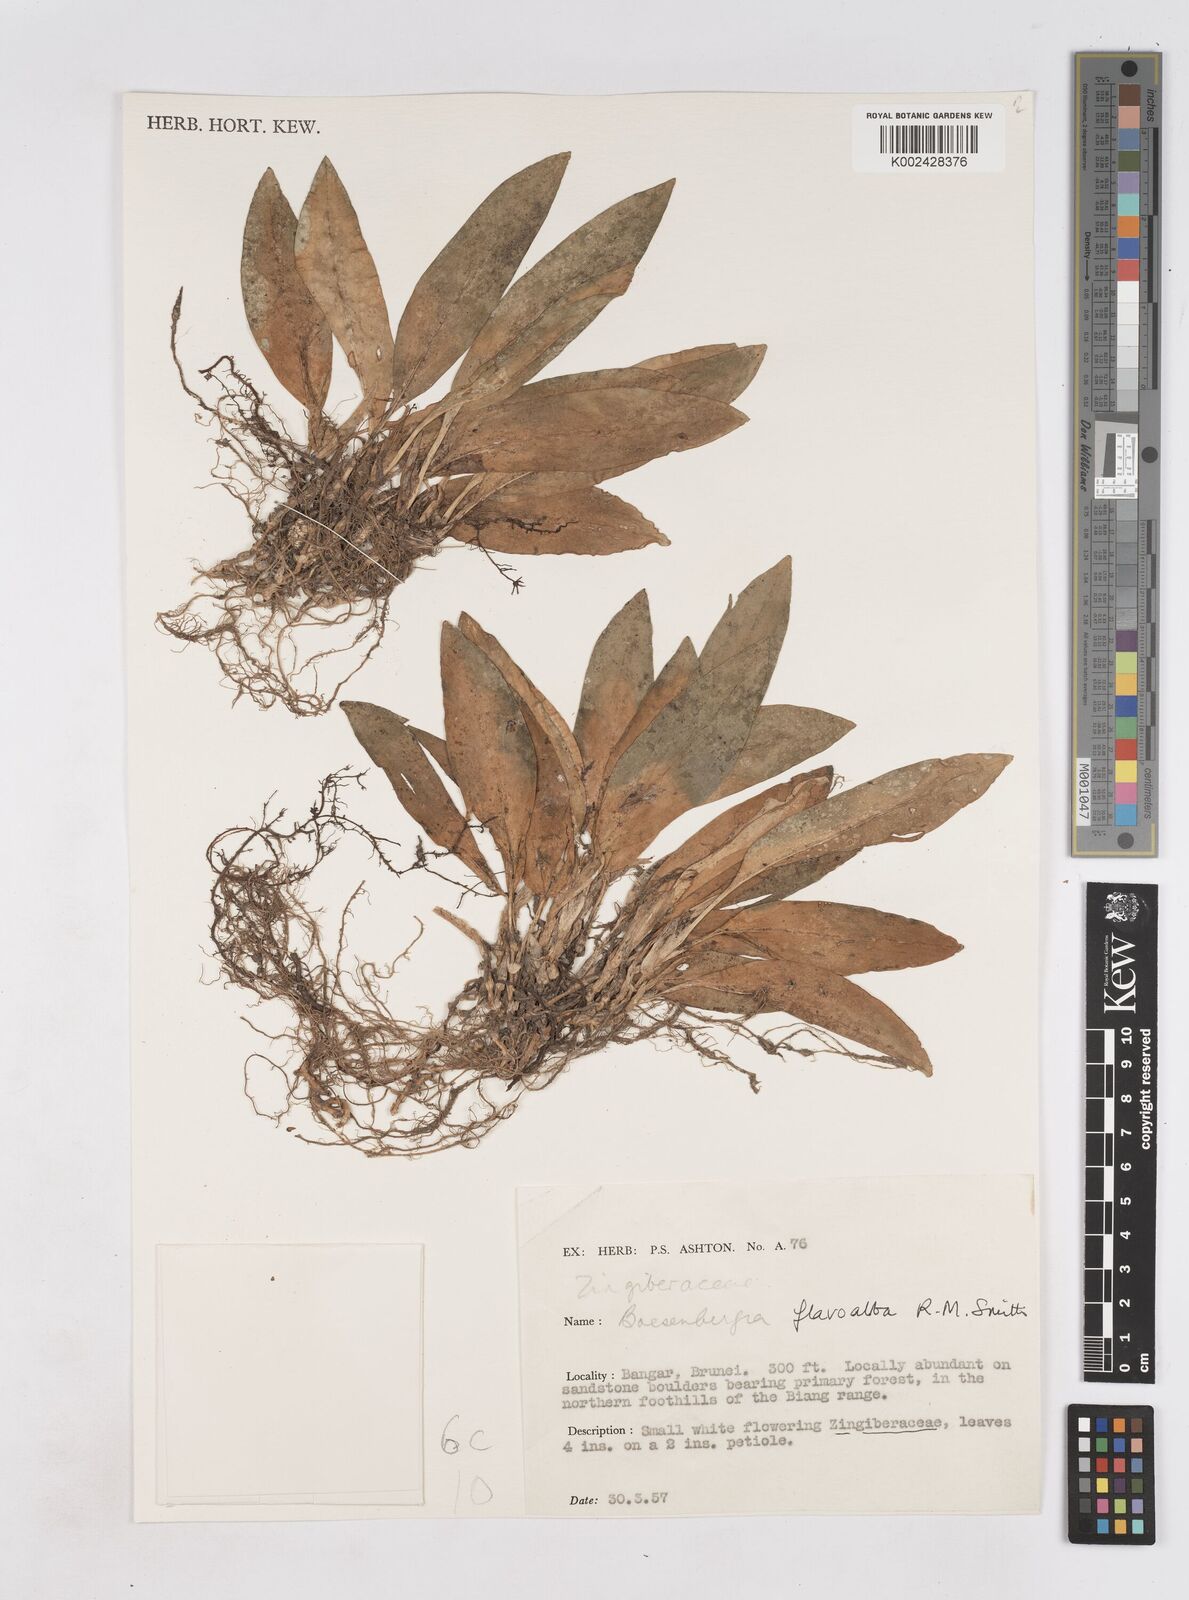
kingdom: Plantae
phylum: Tracheophyta
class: Liliopsida
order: Zingiberales
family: Zingiberaceae
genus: Boesenbergia
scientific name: Boesenbergia flavoalba
